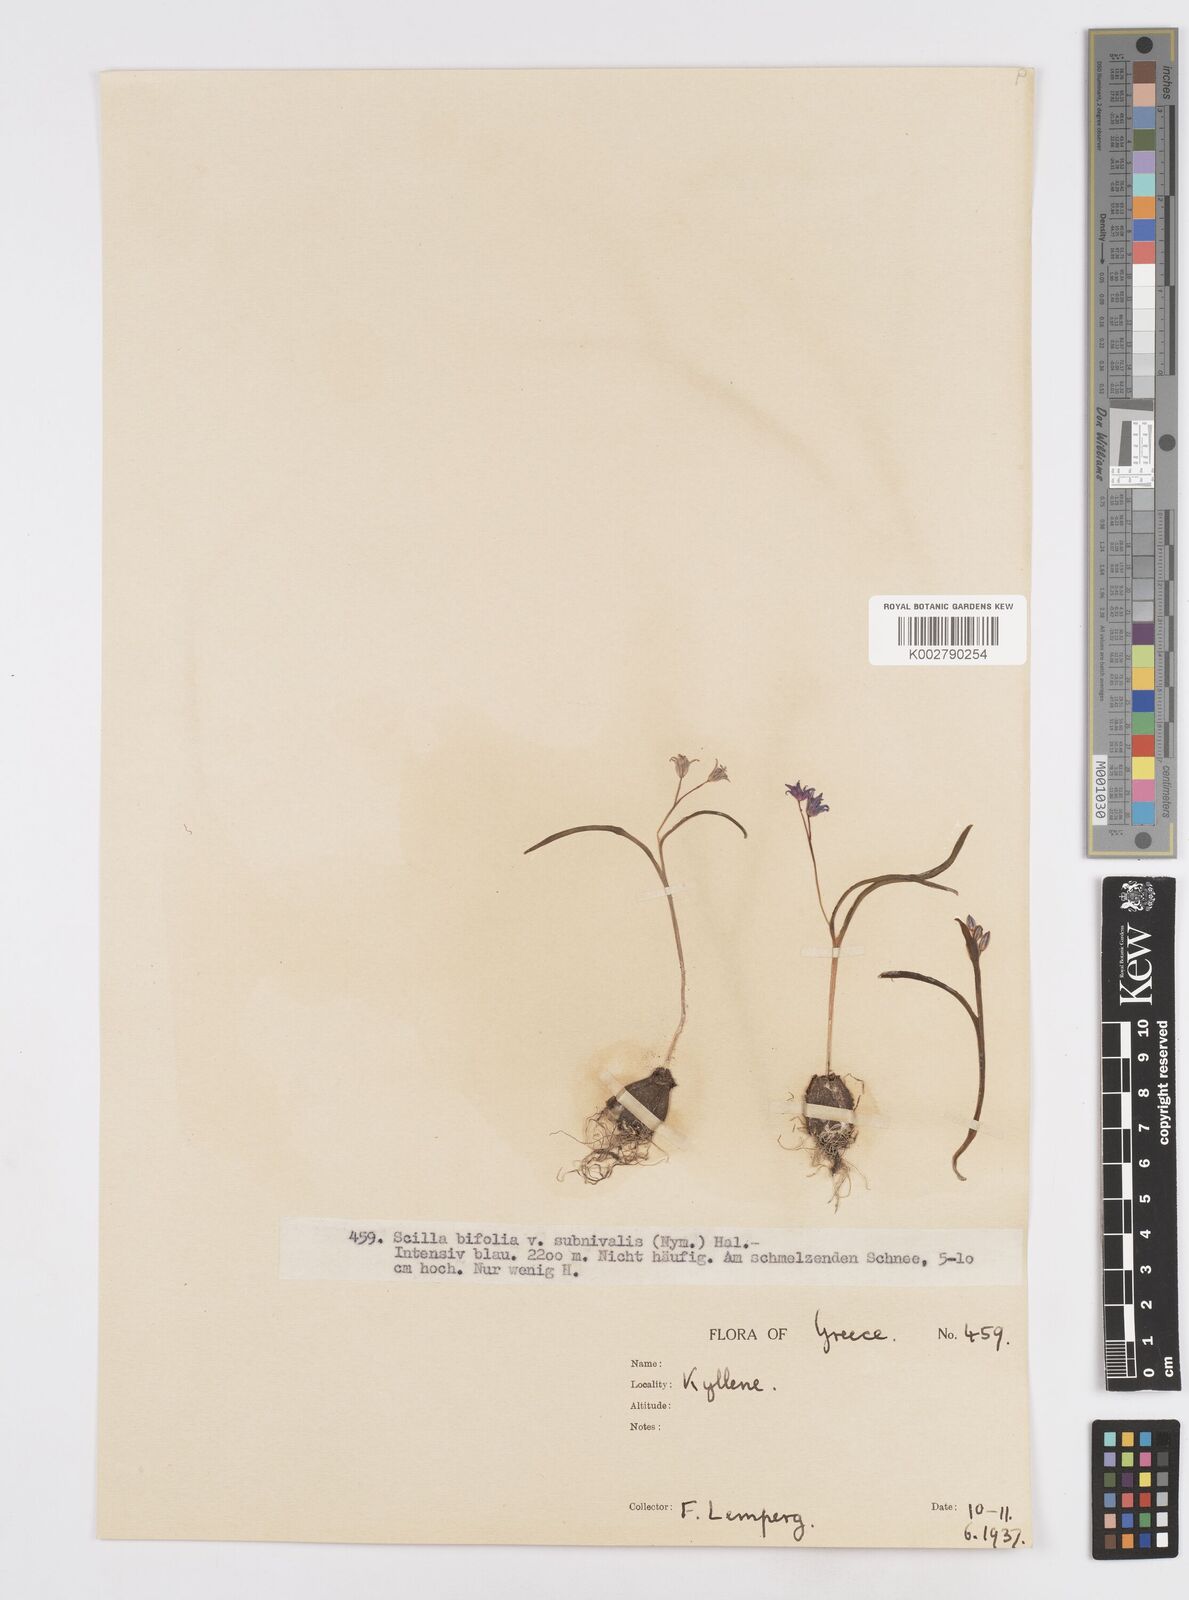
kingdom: Plantae
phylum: Tracheophyta
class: Liliopsida
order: Asparagales
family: Asparagaceae
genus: Scilla
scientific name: Scilla bifolia
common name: Alpine squill
